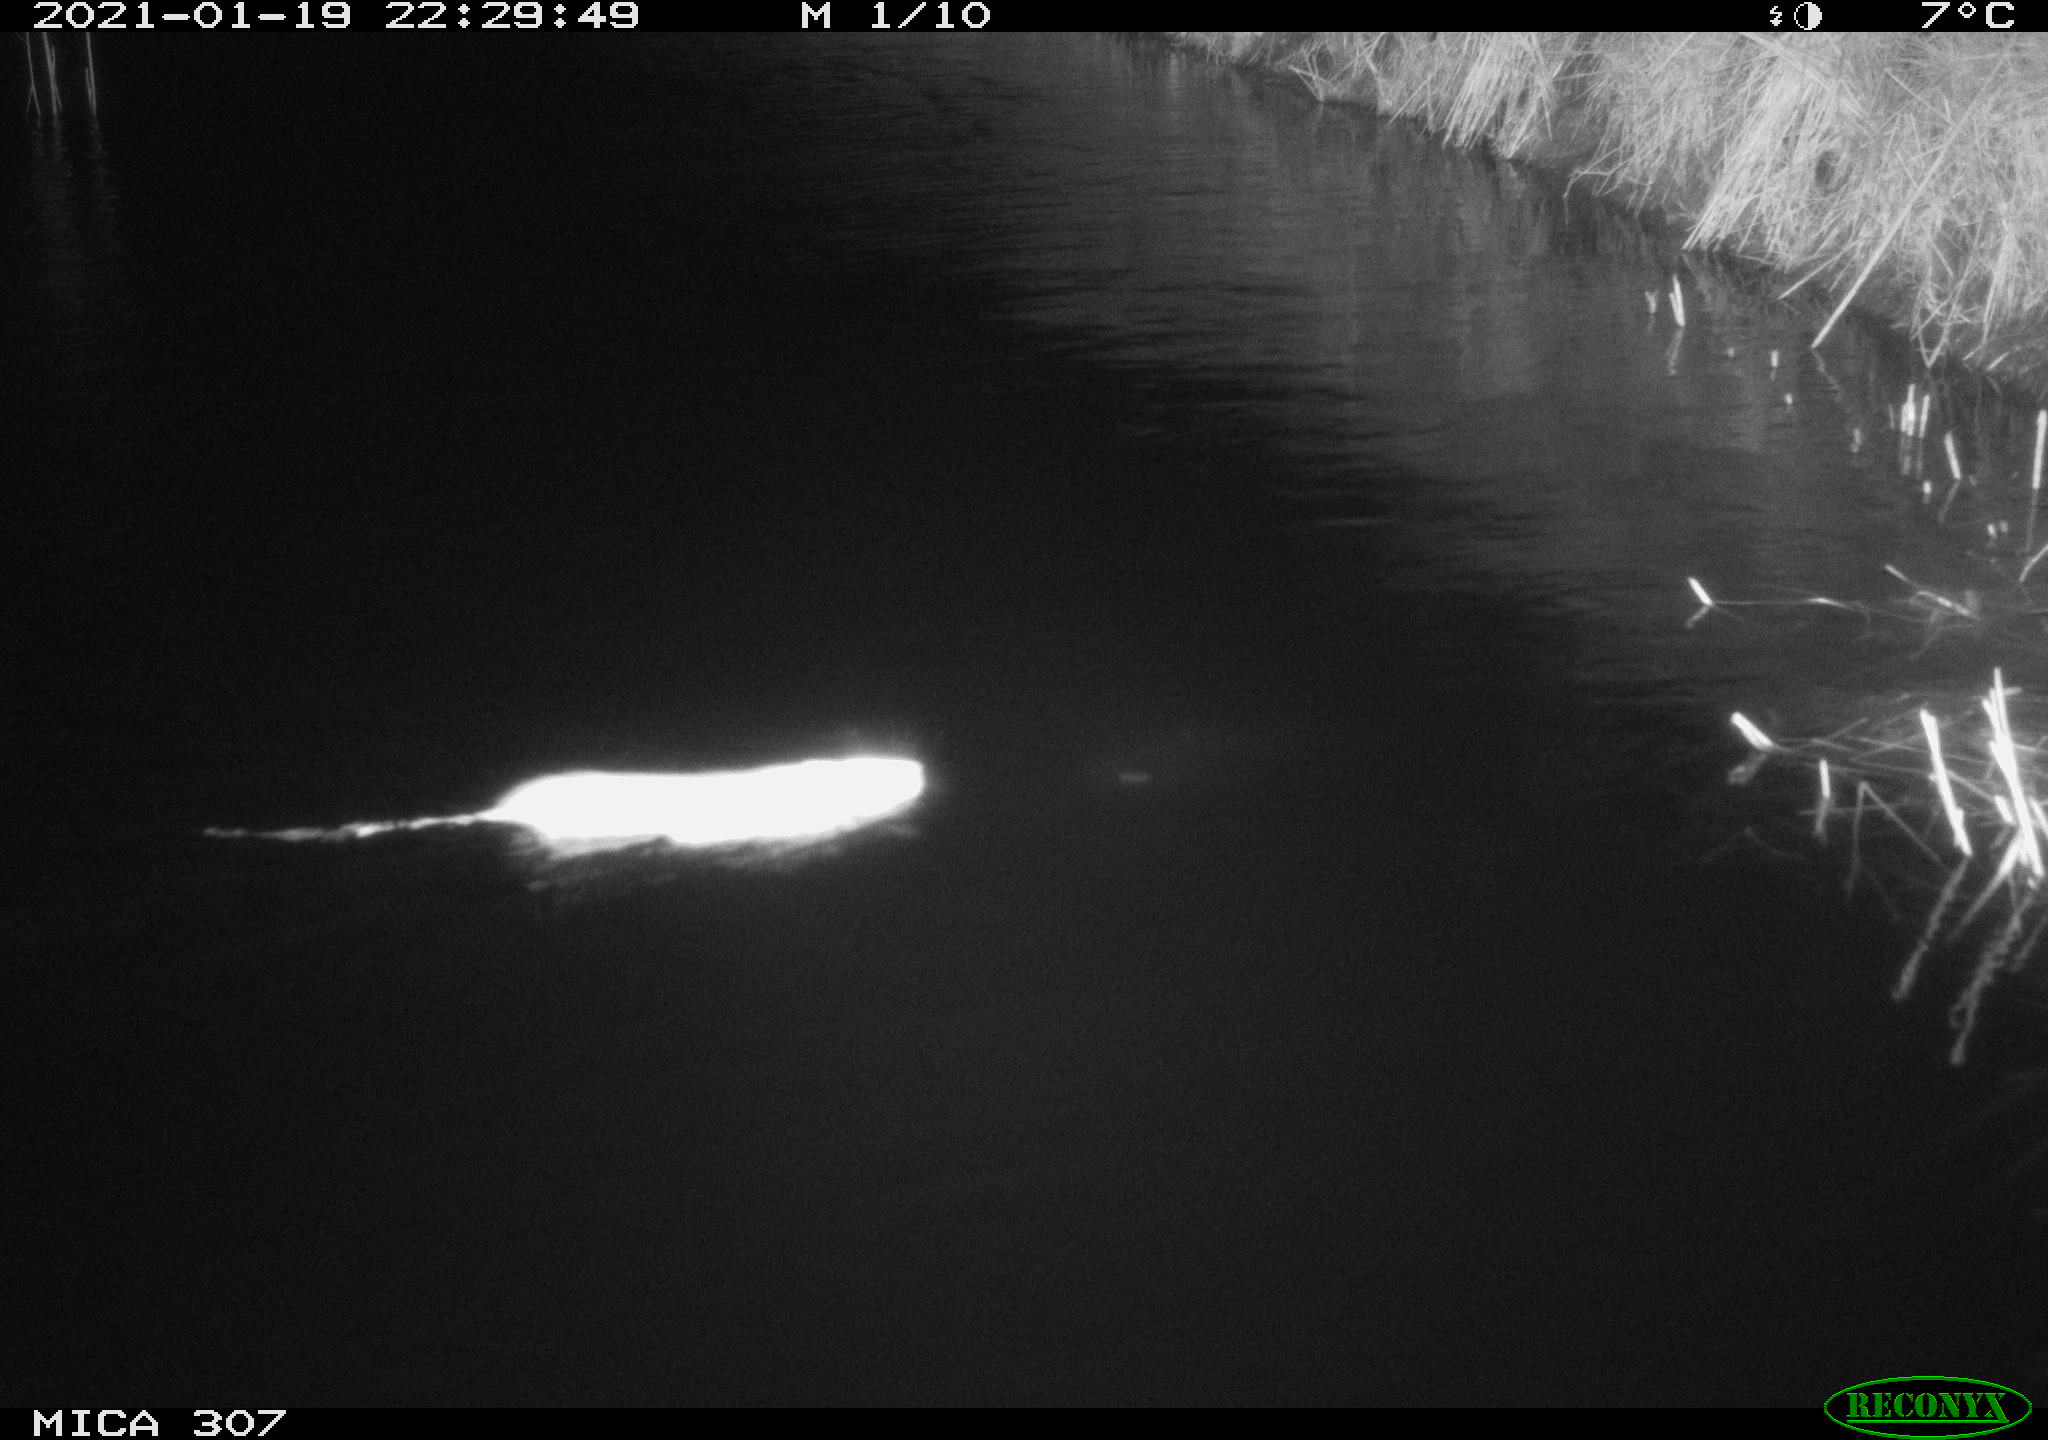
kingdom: Animalia
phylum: Chordata
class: Mammalia
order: Rodentia
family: Muridae
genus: Rattus
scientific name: Rattus norvegicus
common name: Brown rat
